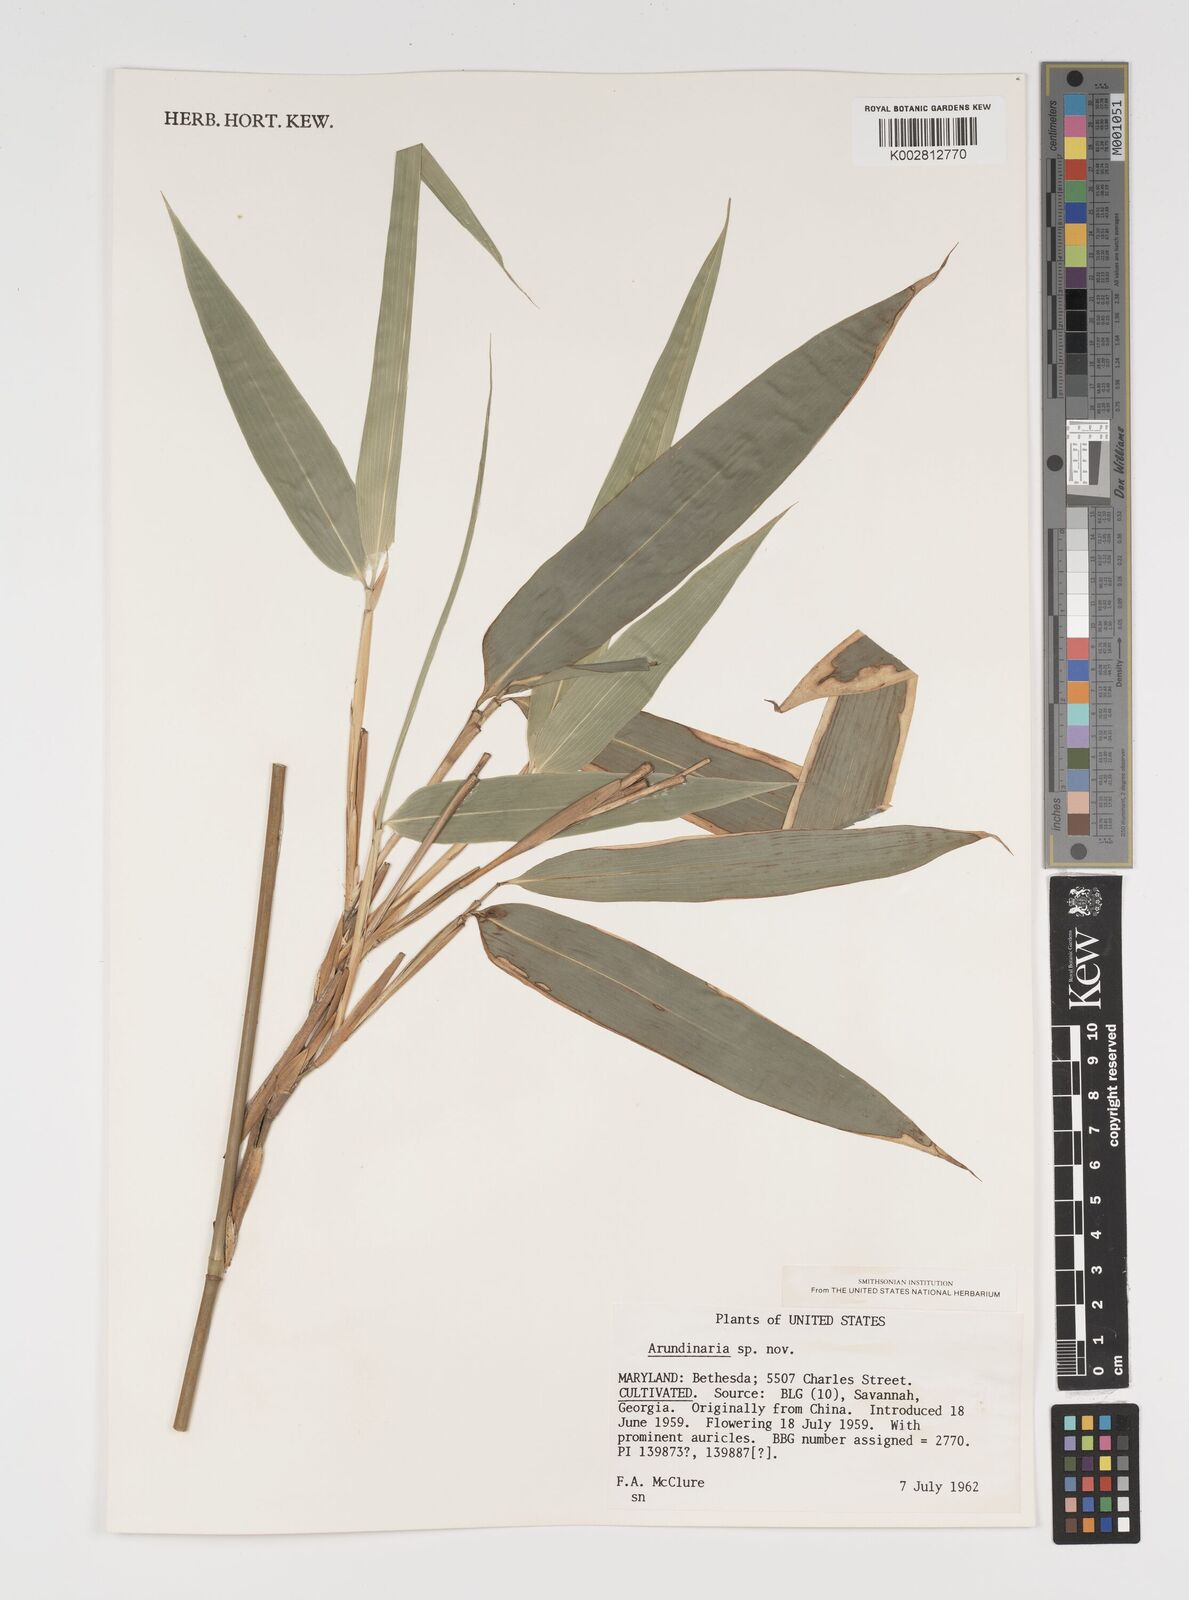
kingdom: Plantae
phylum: Tracheophyta
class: Liliopsida
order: Poales
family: Poaceae
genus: Arundinaria
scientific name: Arundinaria
